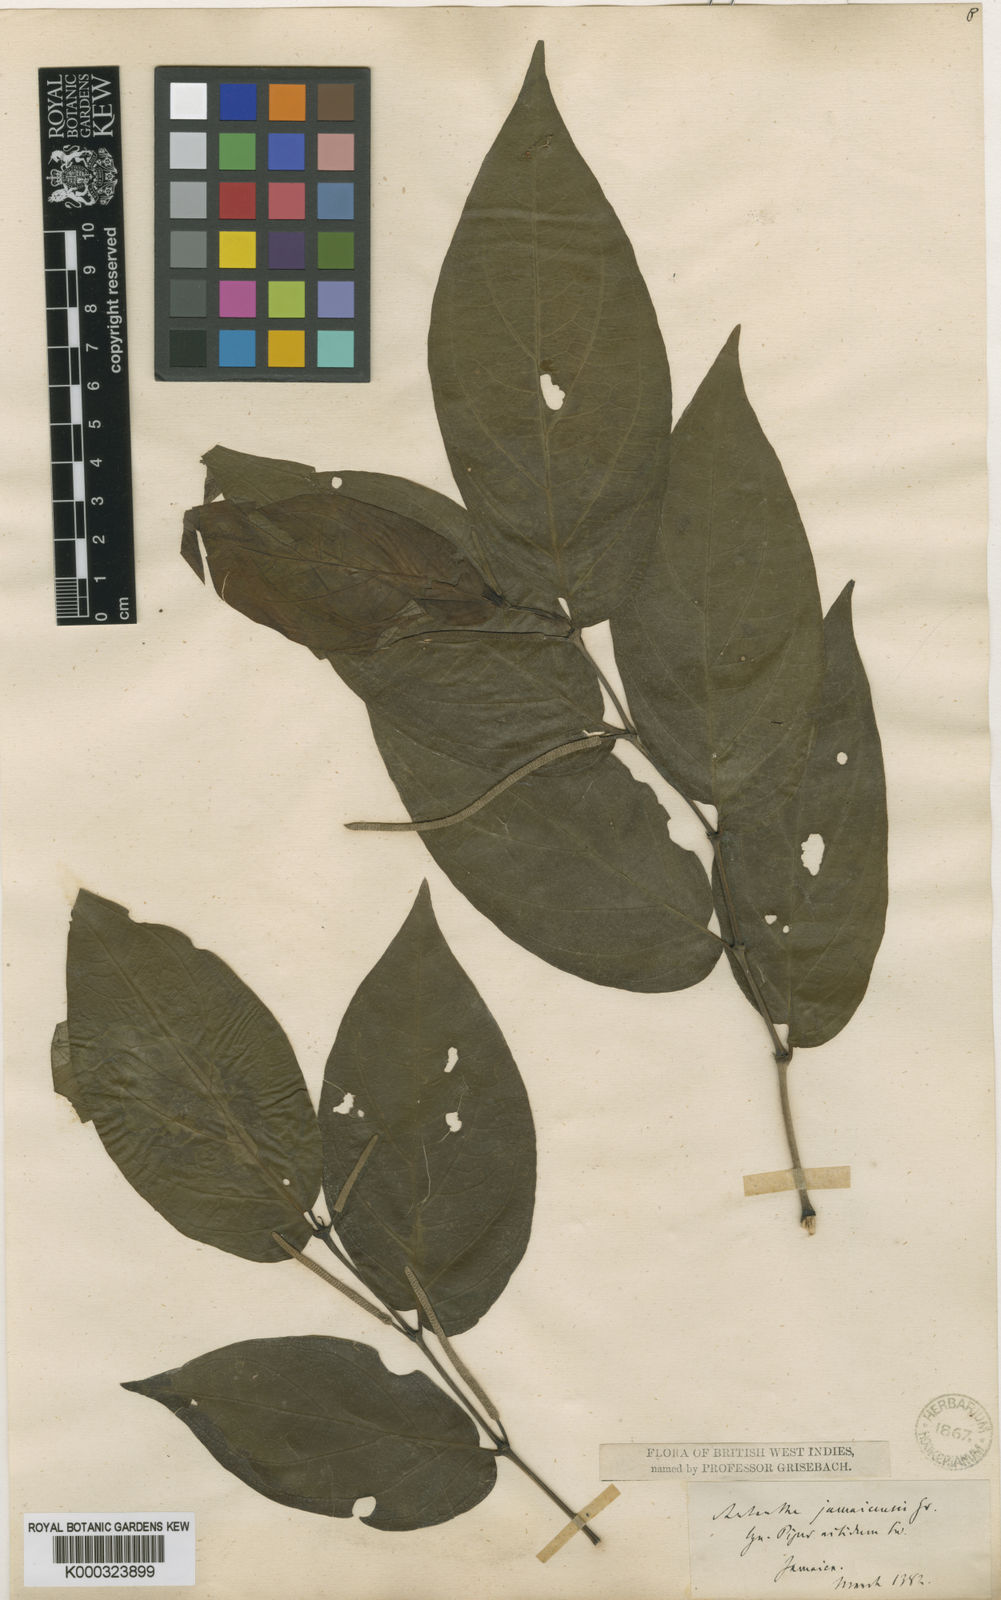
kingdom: Plantae
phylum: Tracheophyta
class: Magnoliopsida
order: Piperales
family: Piperaceae
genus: Piper
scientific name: Piper arboreum
